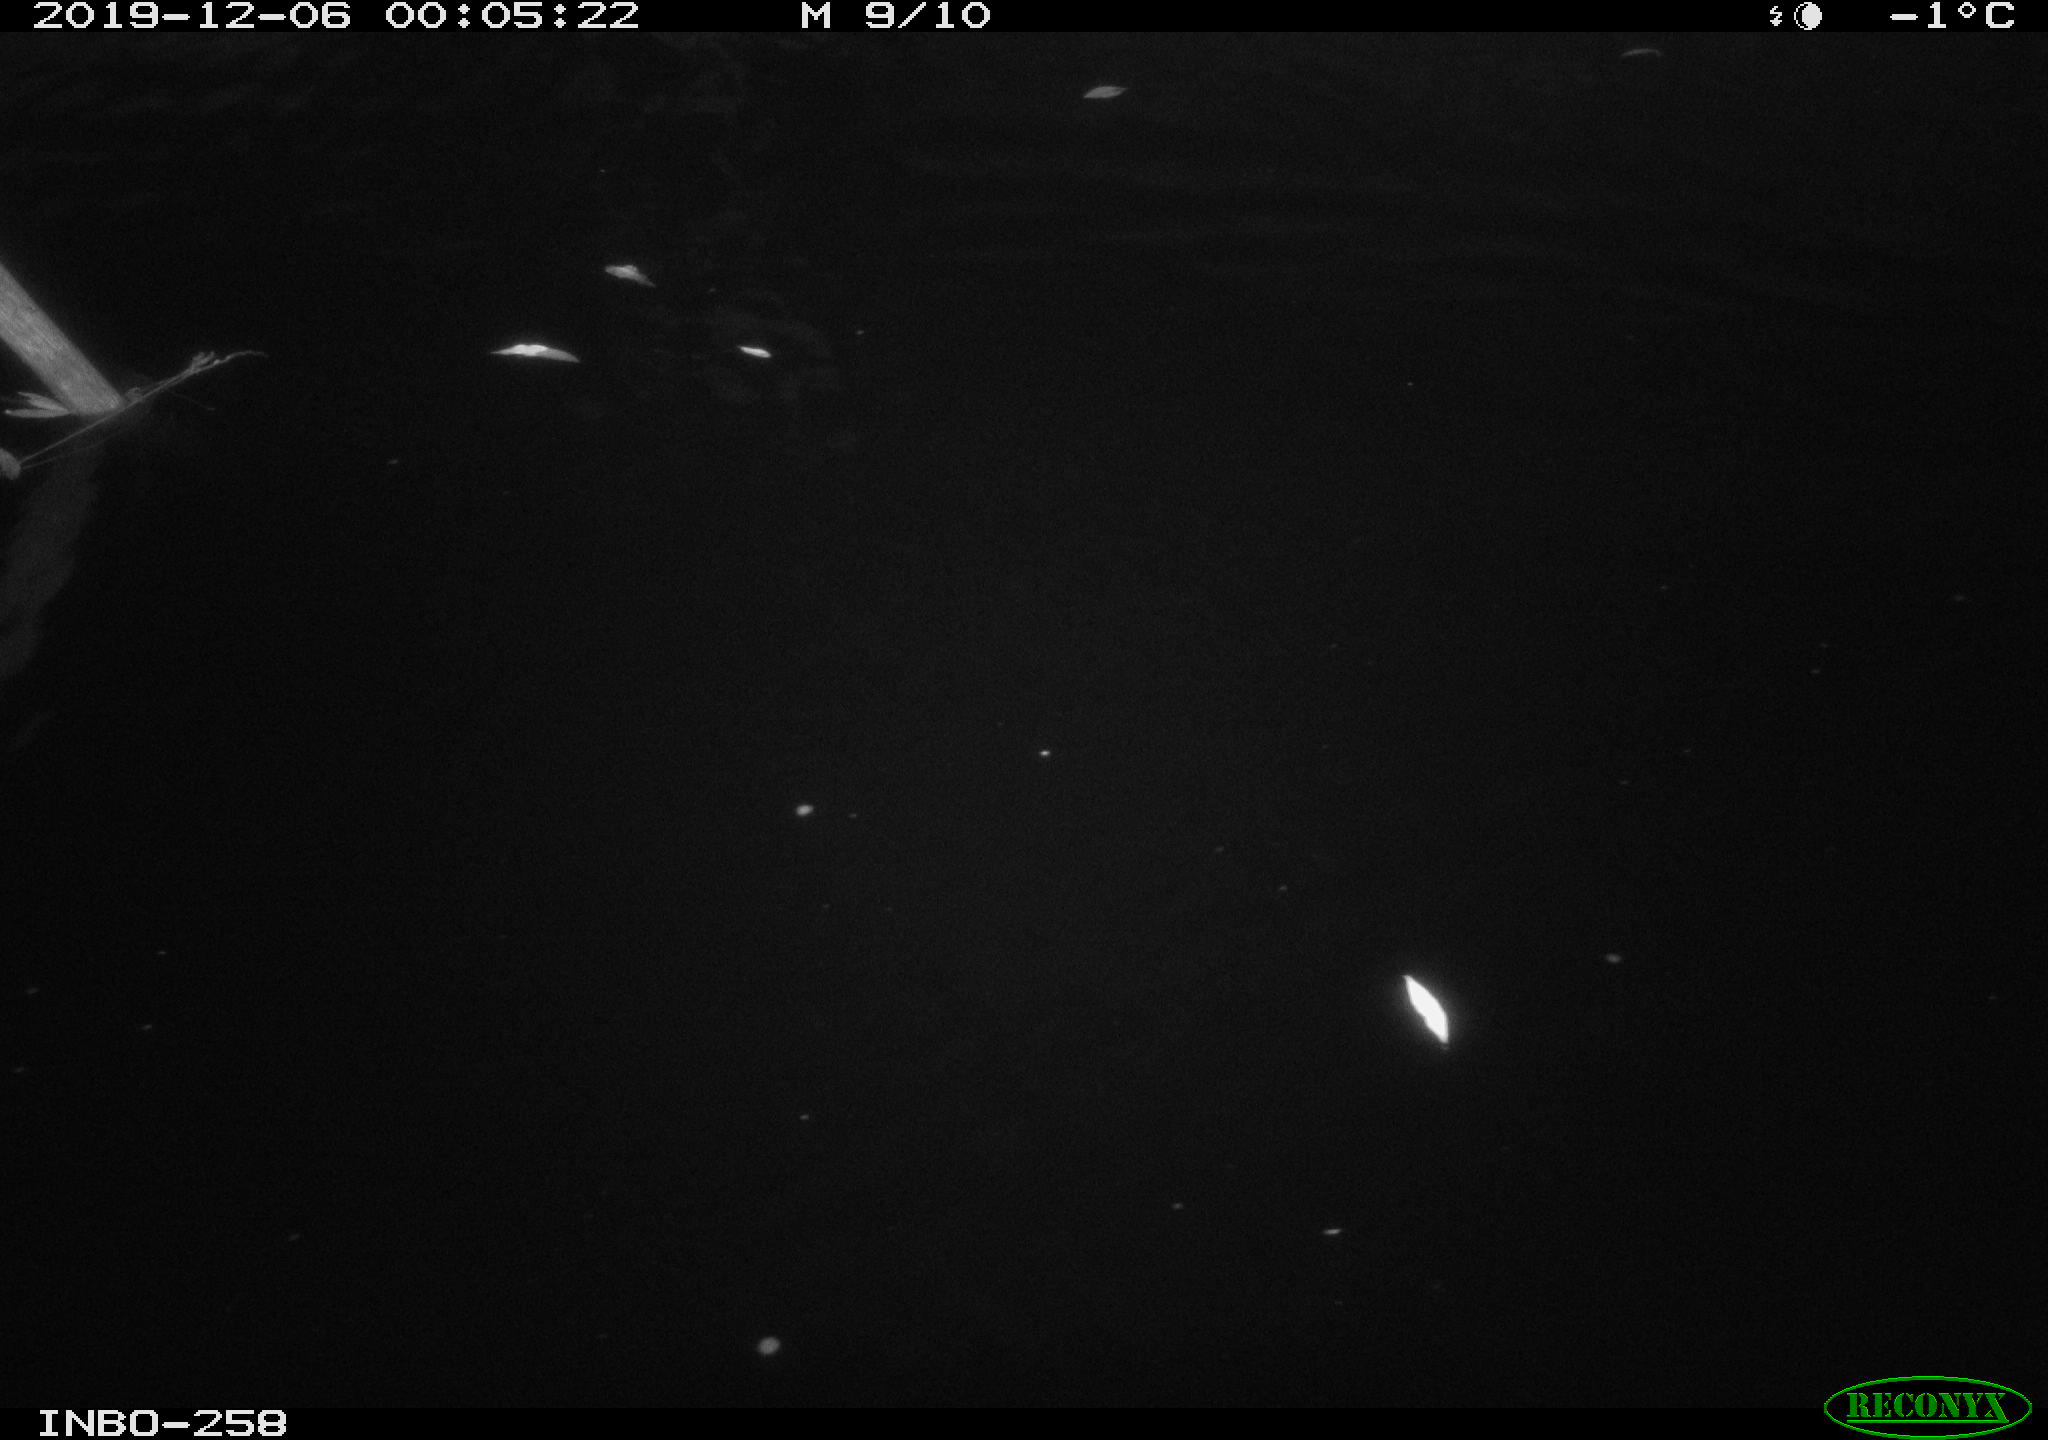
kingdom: Animalia
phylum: Chordata
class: Aves
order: Anseriformes
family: Anatidae
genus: Anas
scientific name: Anas platyrhynchos
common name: Mallard
